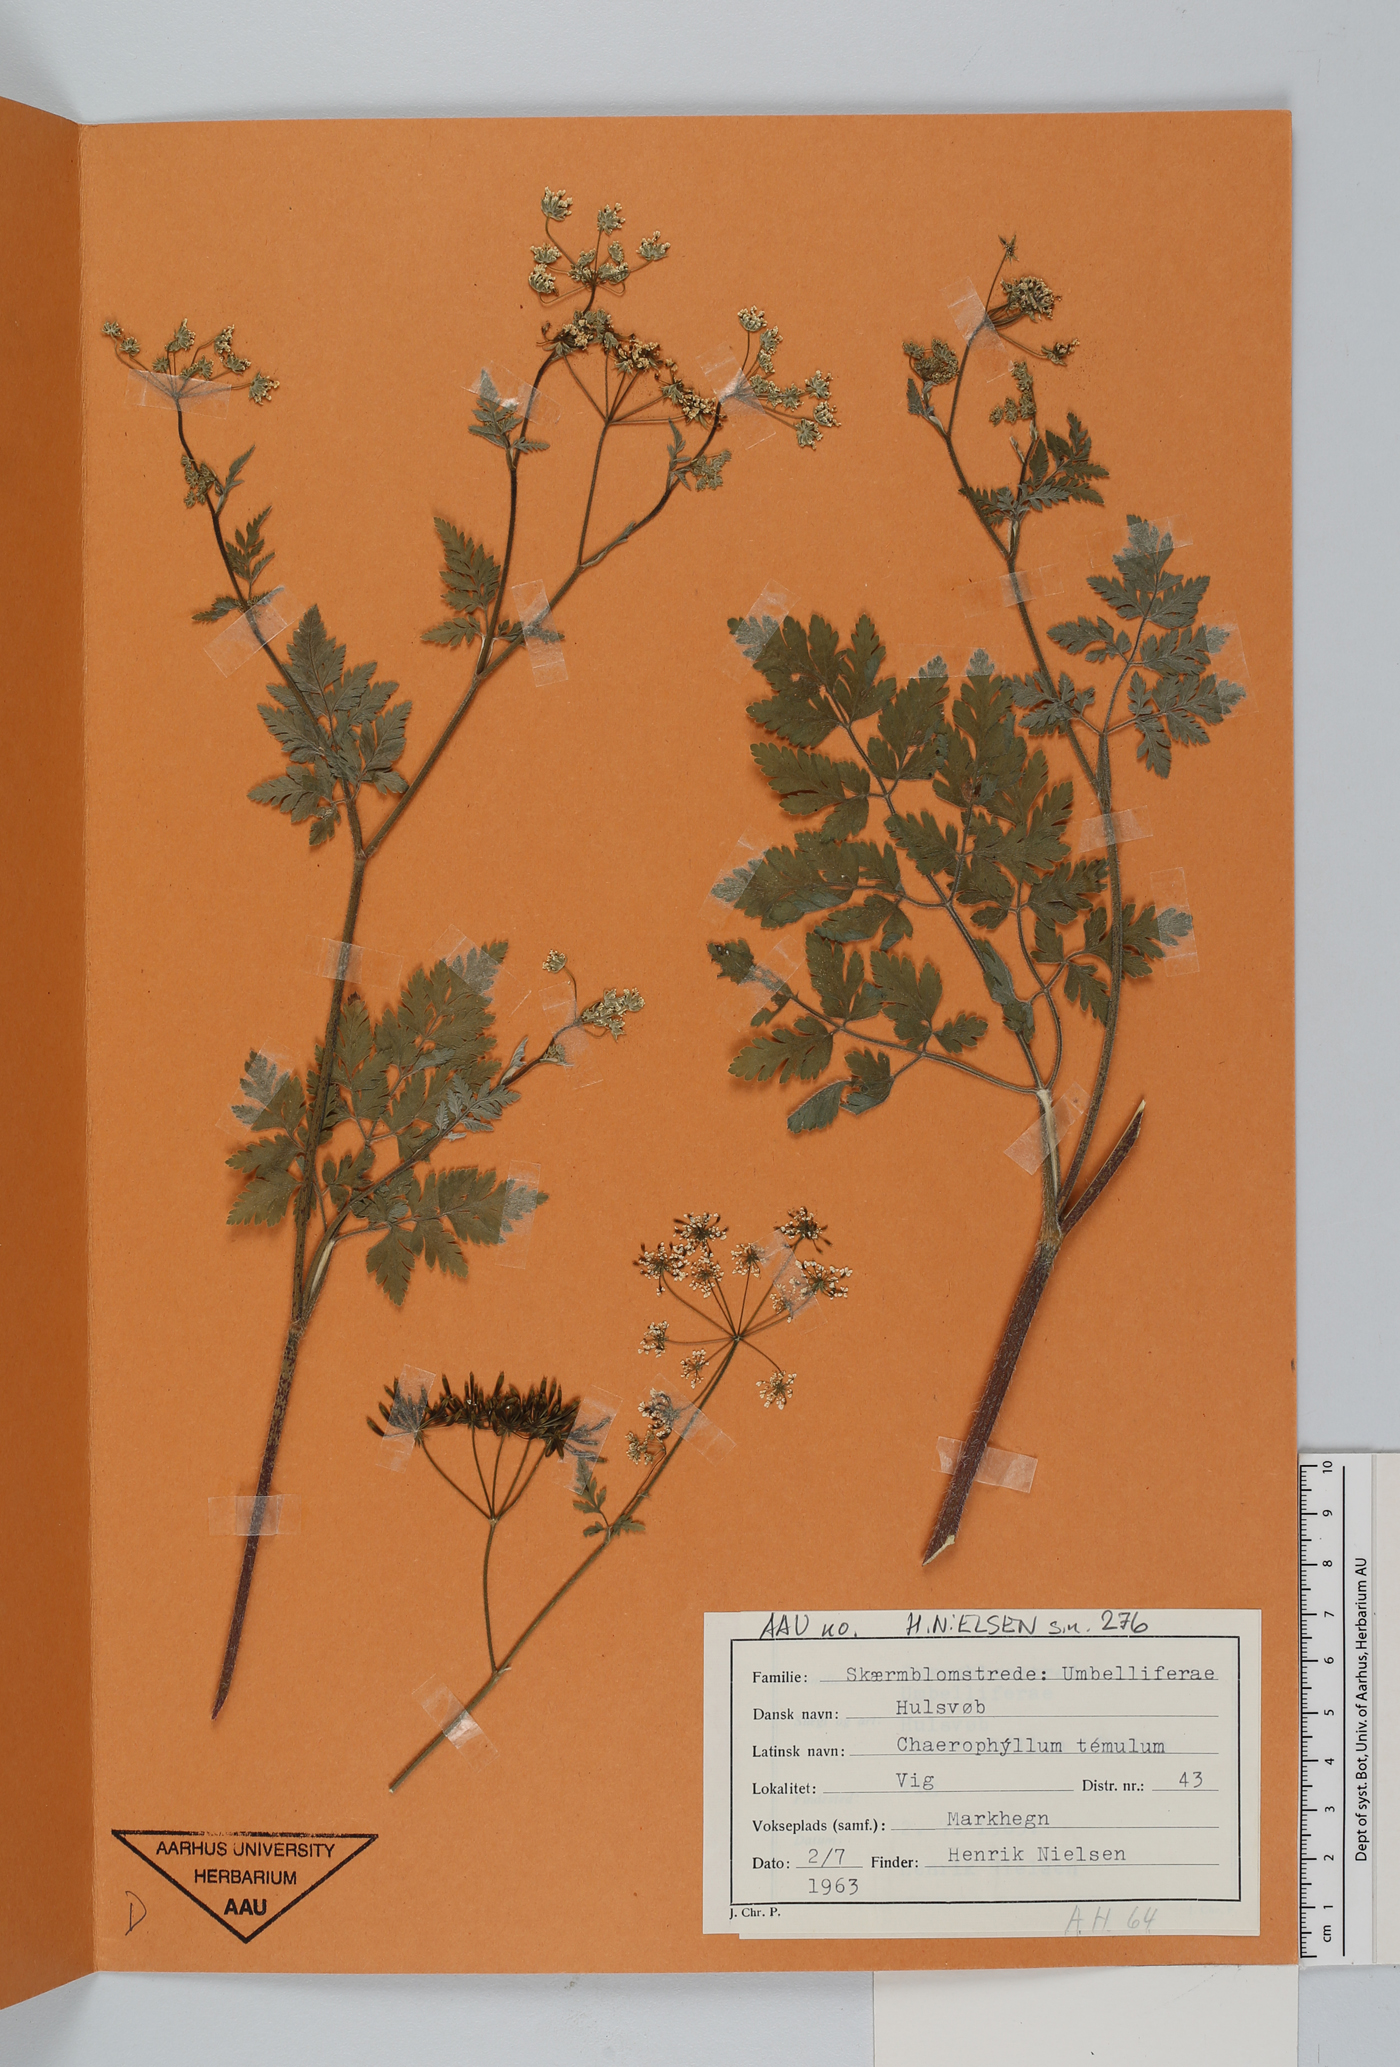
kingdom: Plantae
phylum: Tracheophyta
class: Magnoliopsida
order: Apiales
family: Apiaceae
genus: Chaerophyllum
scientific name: Chaerophyllum temulum
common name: Rough chervil
